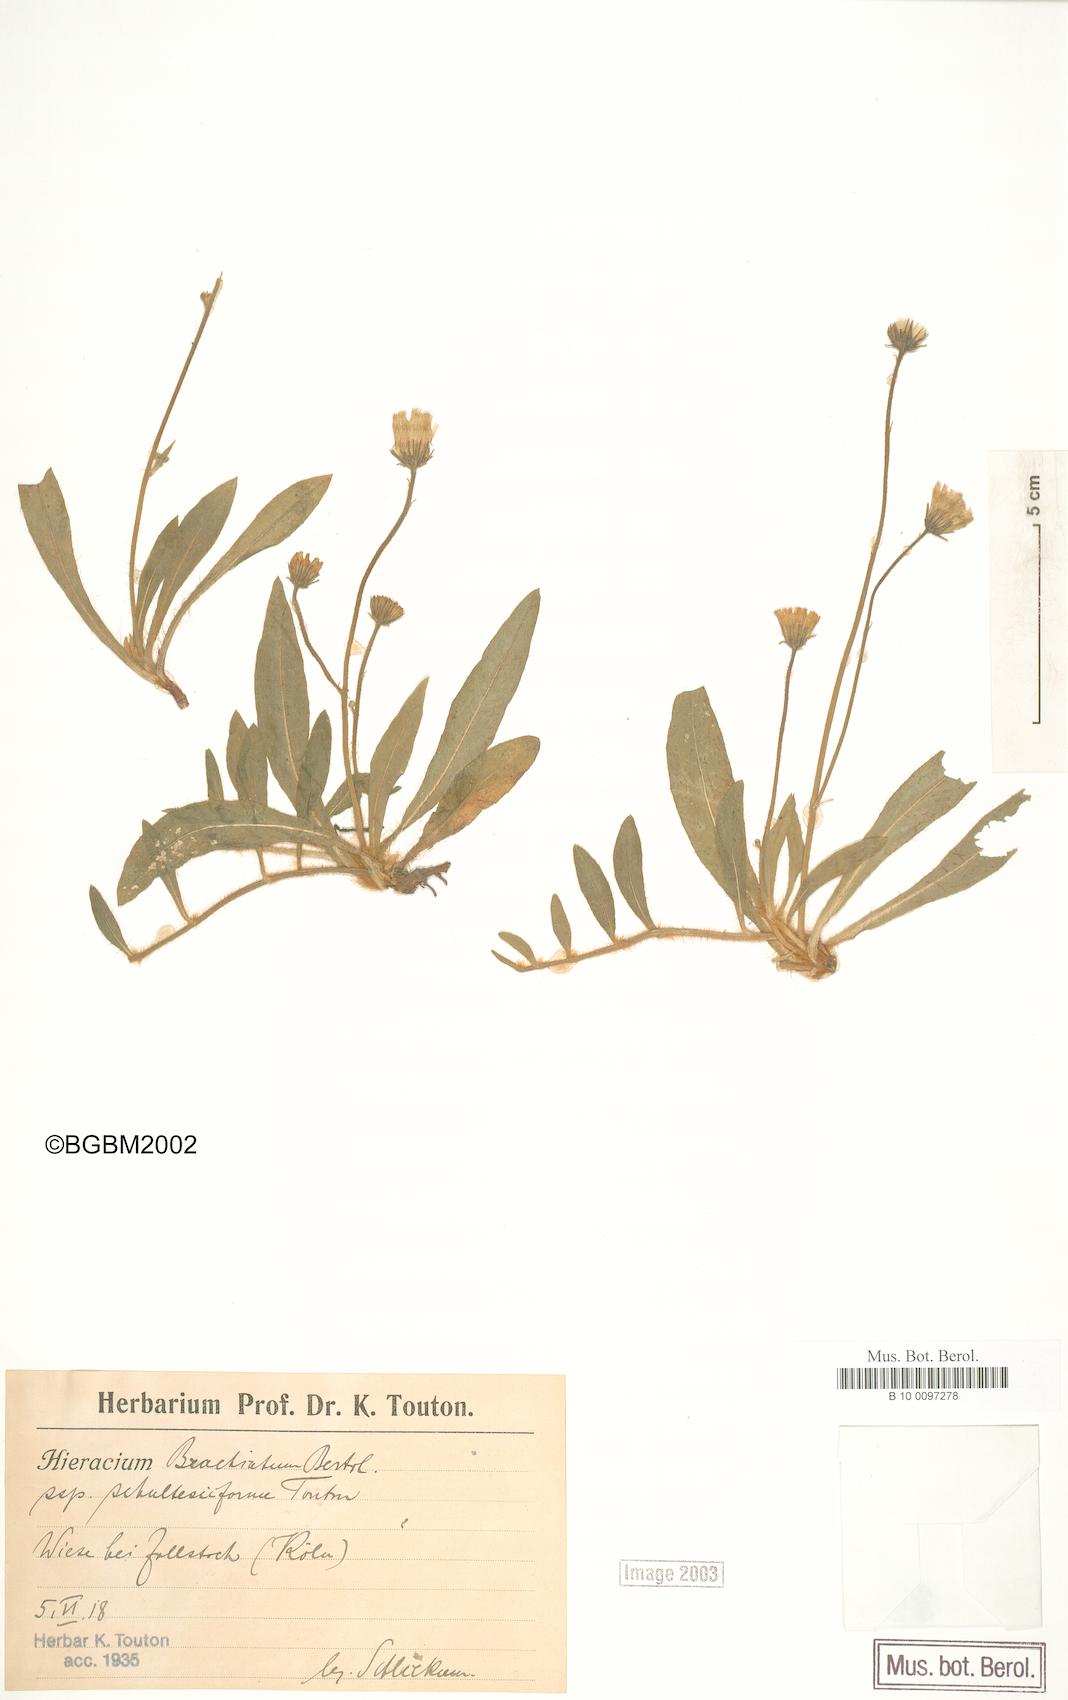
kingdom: Plantae
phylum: Tracheophyta
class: Magnoliopsida
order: Asterales
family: Asteraceae
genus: Pilosella
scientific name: Pilosella acutifolia
